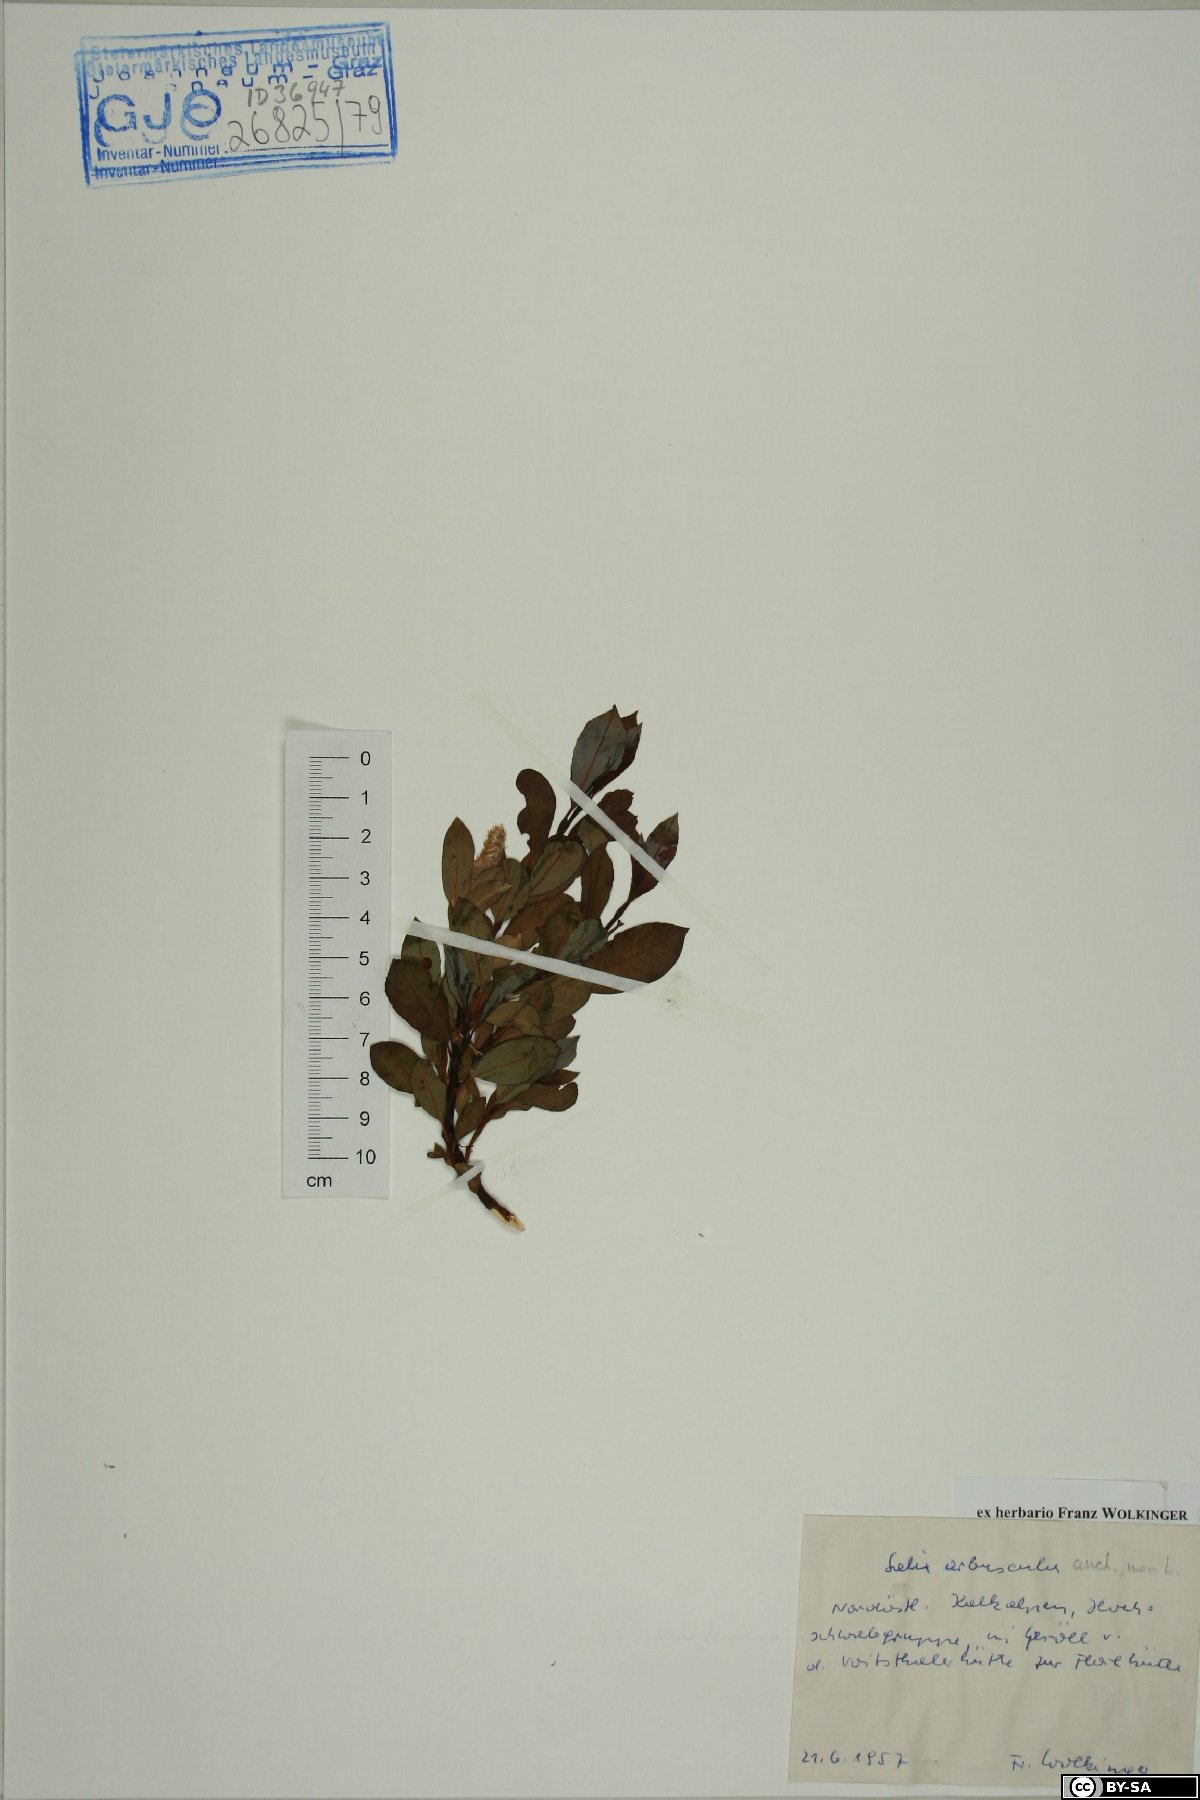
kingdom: Plantae
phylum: Tracheophyta
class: Magnoliopsida
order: Malpighiales
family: Salicaceae
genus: Salix
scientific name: Salix arbuscula
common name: Mountain willow
